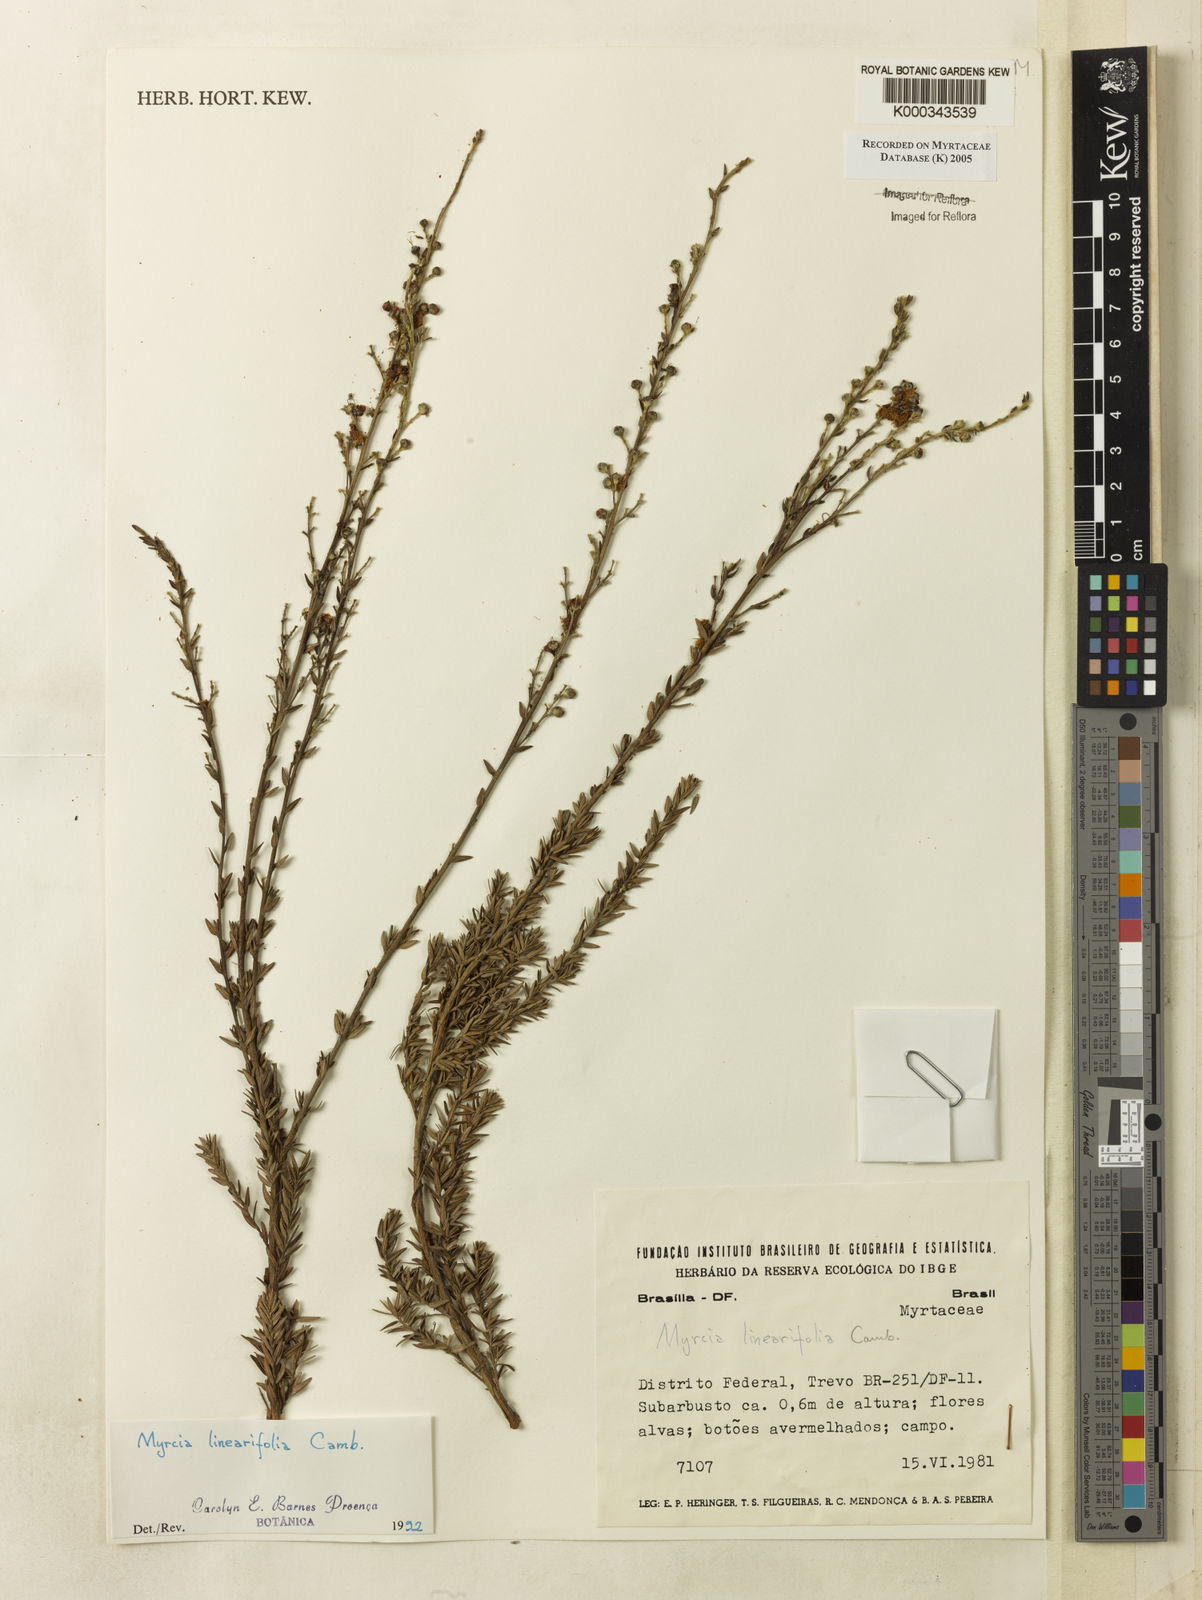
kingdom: Plantae
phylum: Tracheophyta
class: Magnoliopsida
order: Myrtales
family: Myrtaceae
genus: Myrcia
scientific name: Myrcia linearifolia
